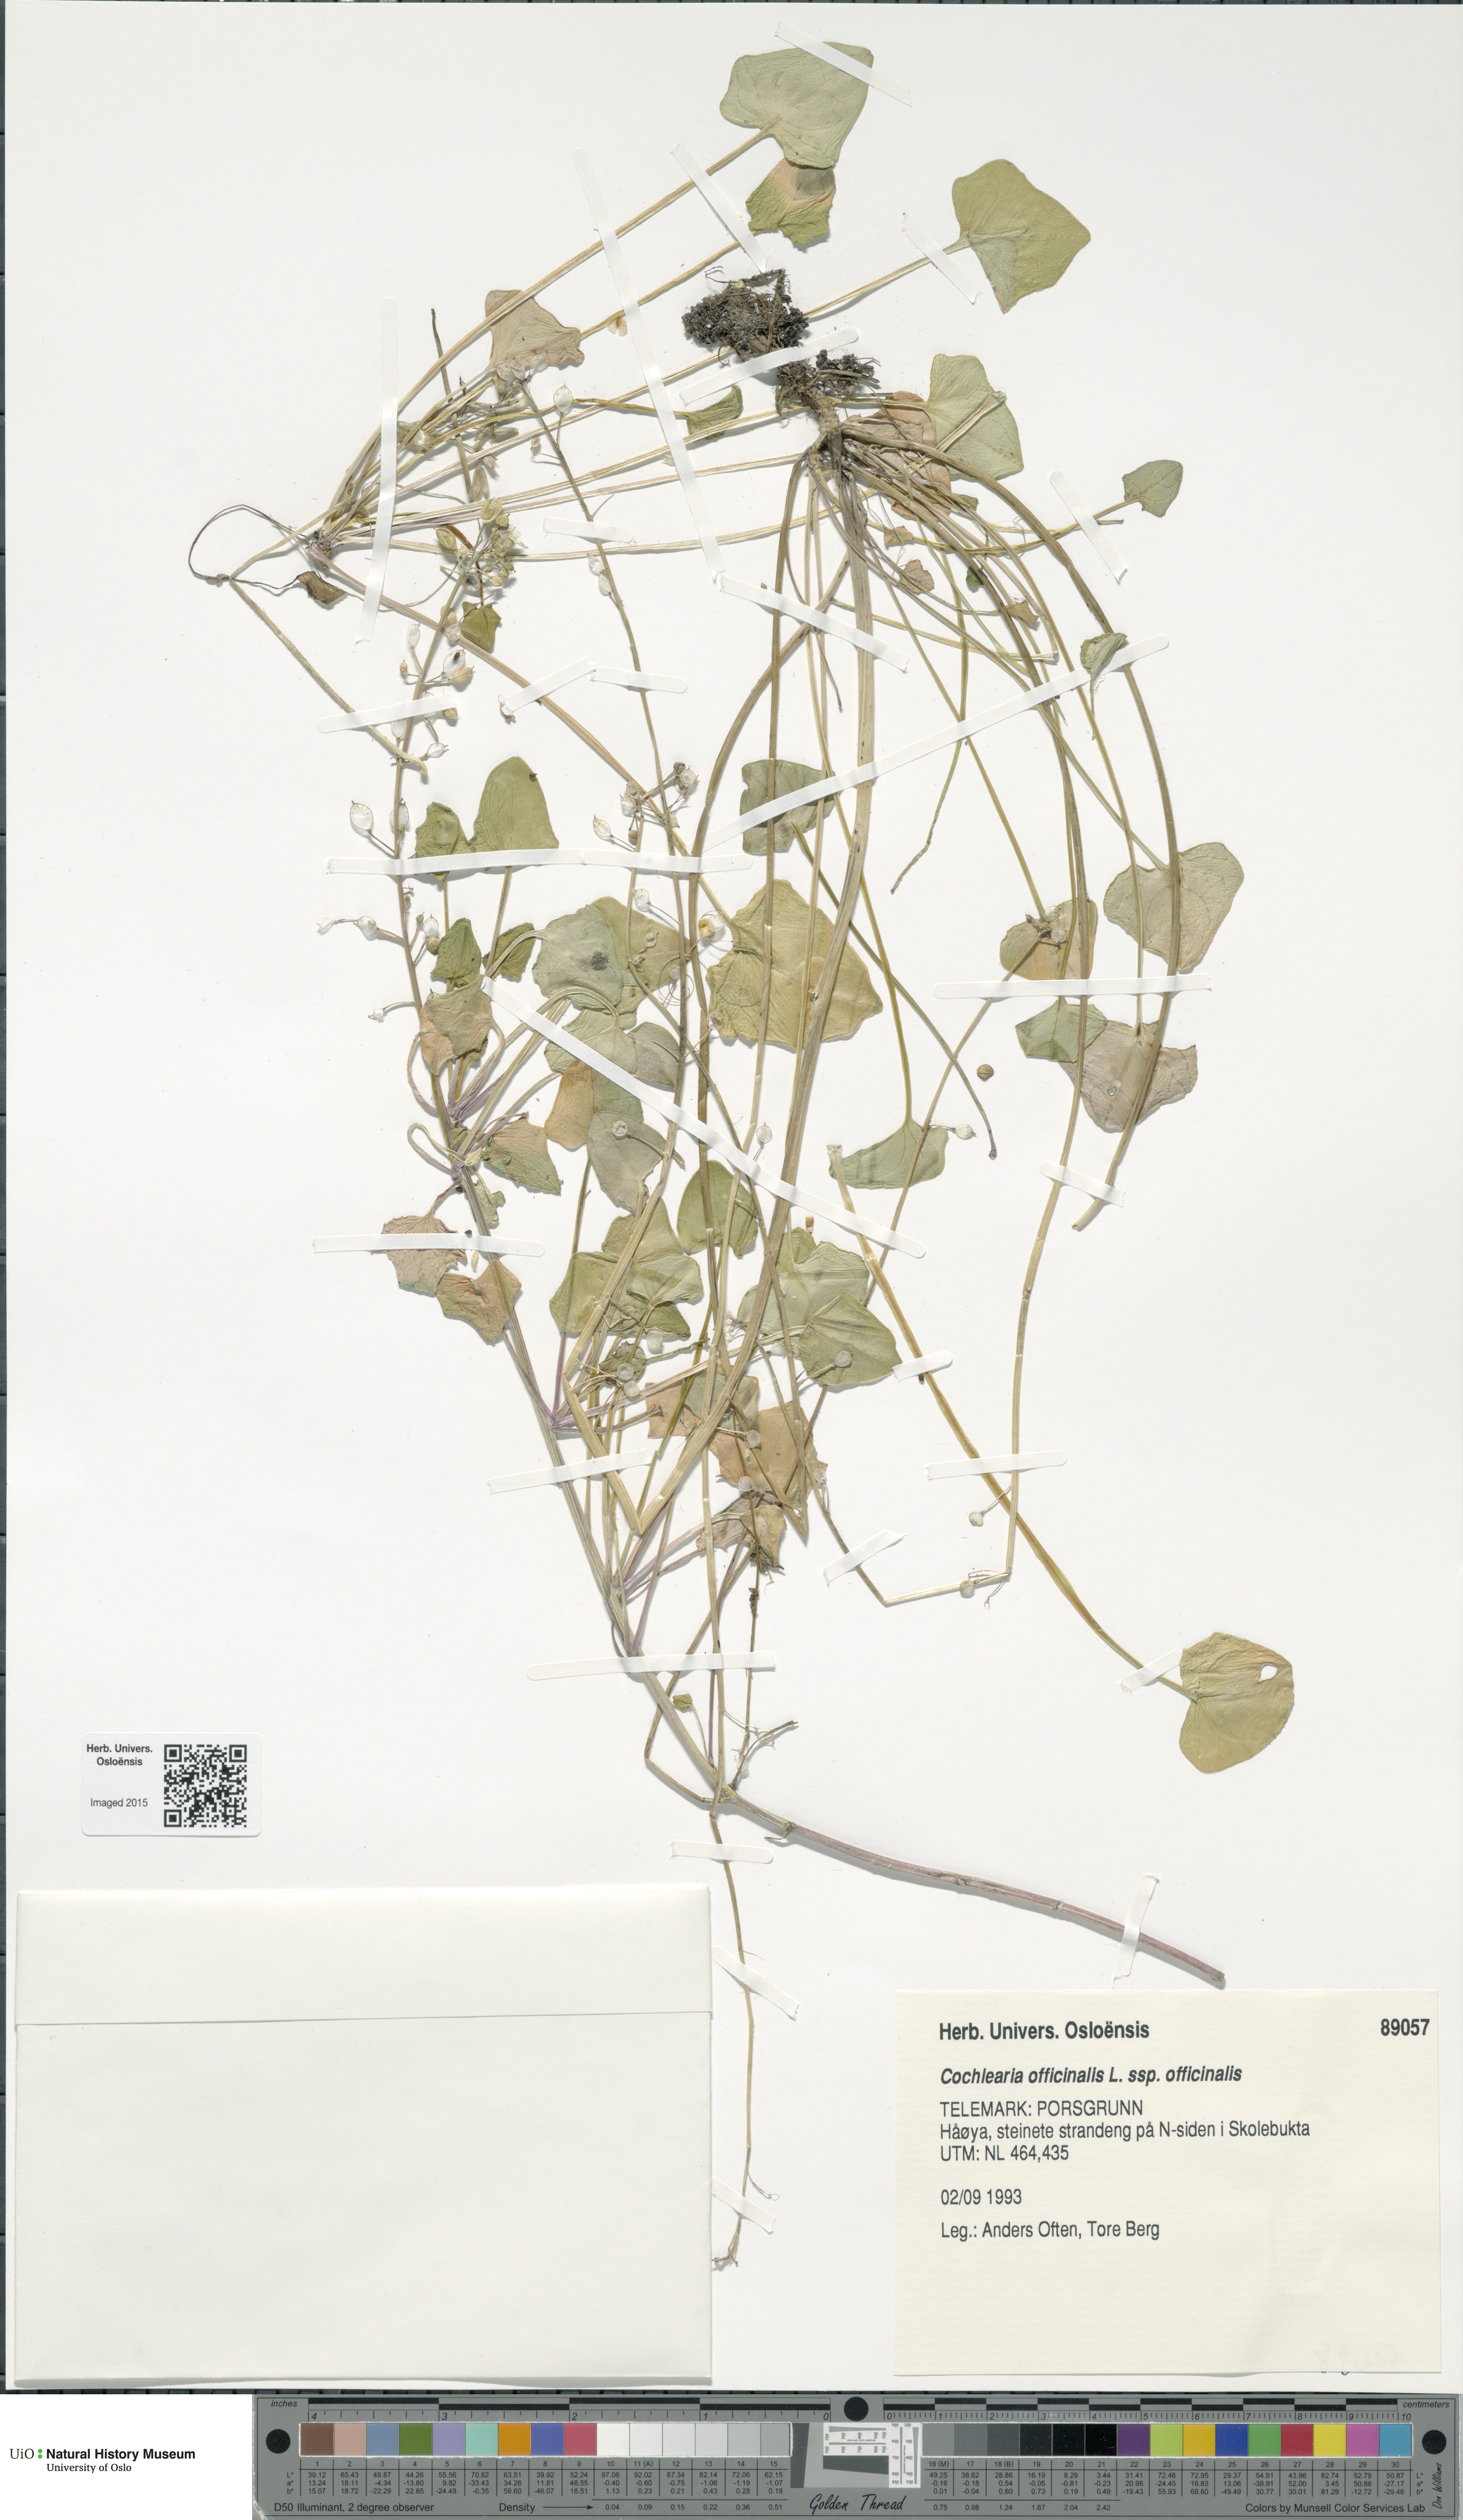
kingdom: Plantae
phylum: Tracheophyta
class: Magnoliopsida
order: Brassicales
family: Brassicaceae
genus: Cochlearia
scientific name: Cochlearia officinalis
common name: Scurvy-grass
